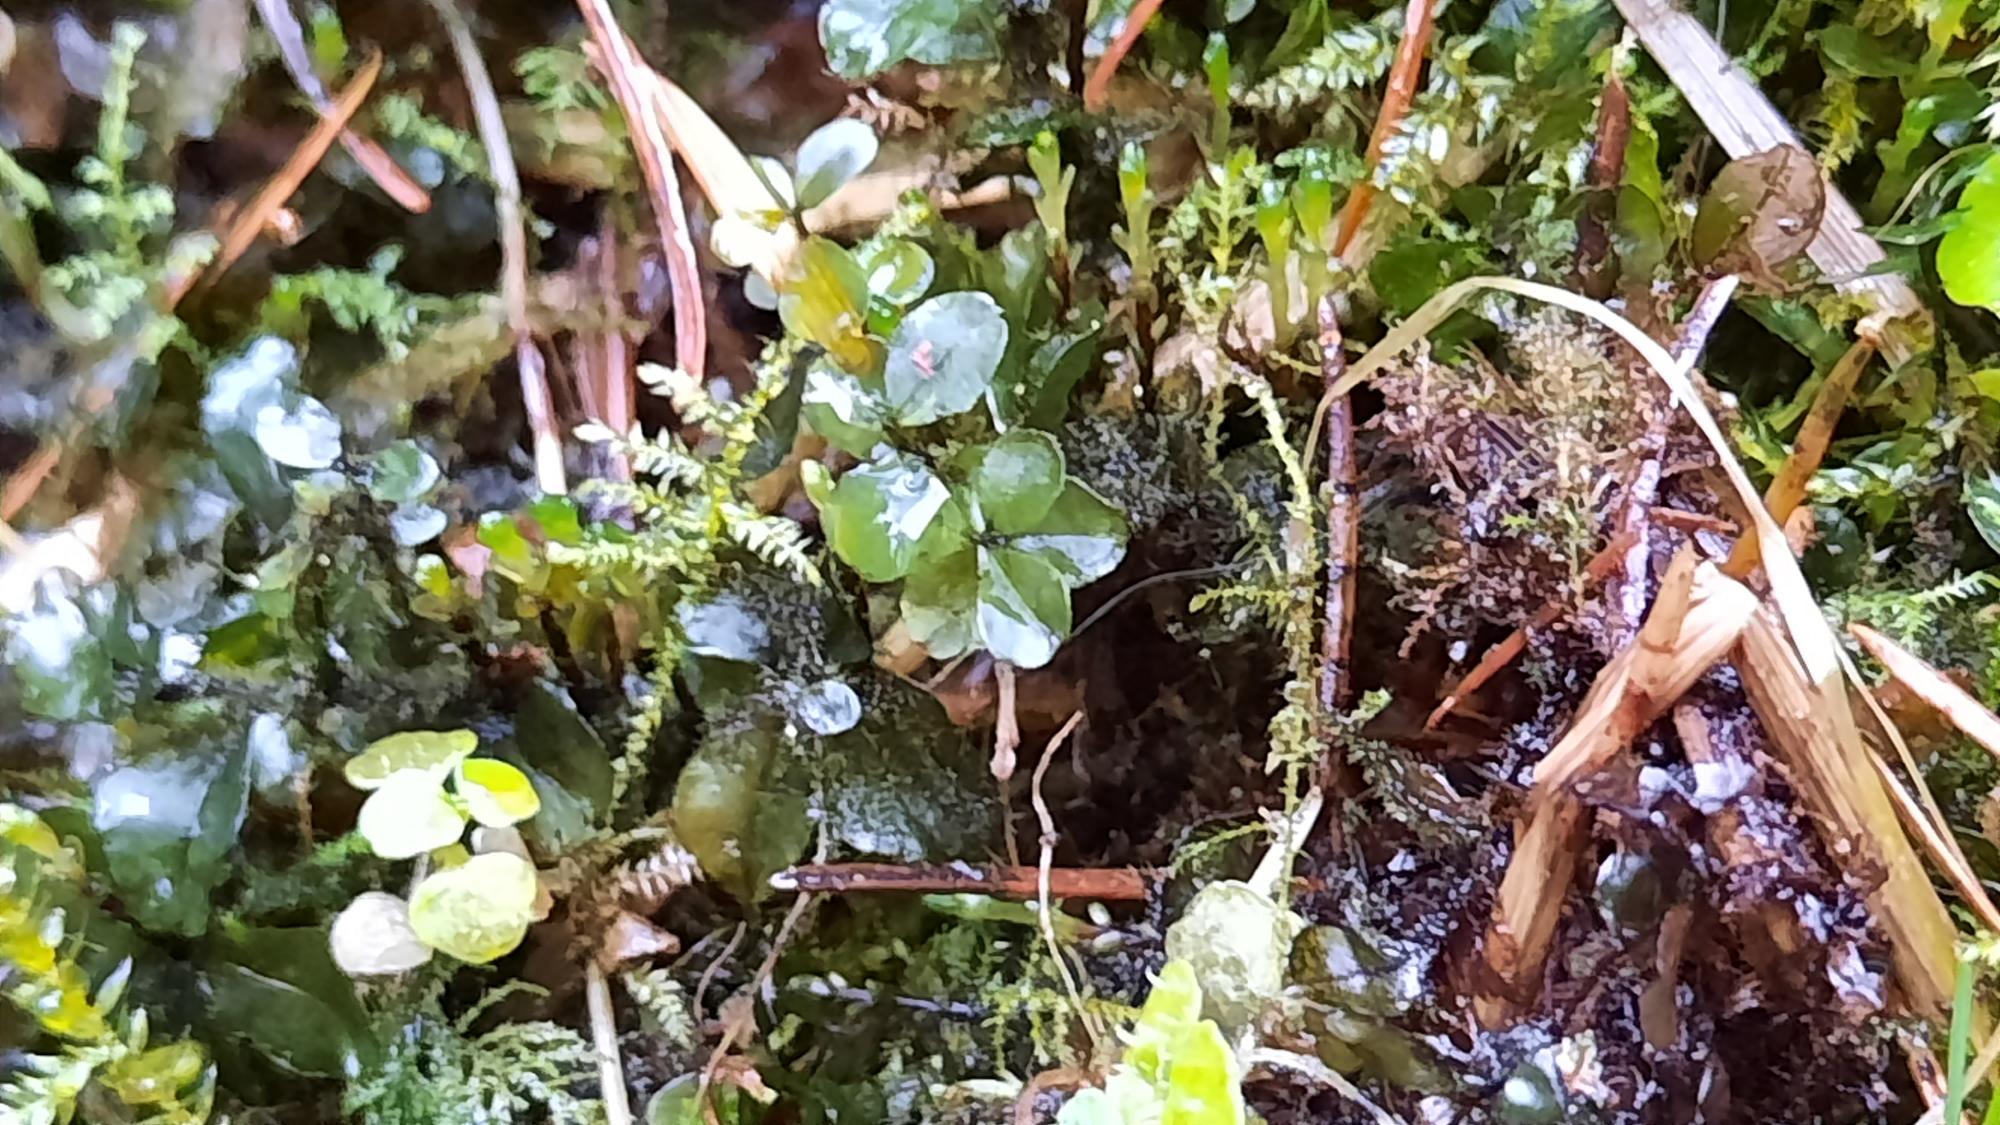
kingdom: Plantae
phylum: Bryophyta
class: Bryopsida
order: Bryales
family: Mniaceae
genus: Rhizomnium
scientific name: Rhizomnium punctatum
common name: Almindelig bredblad
